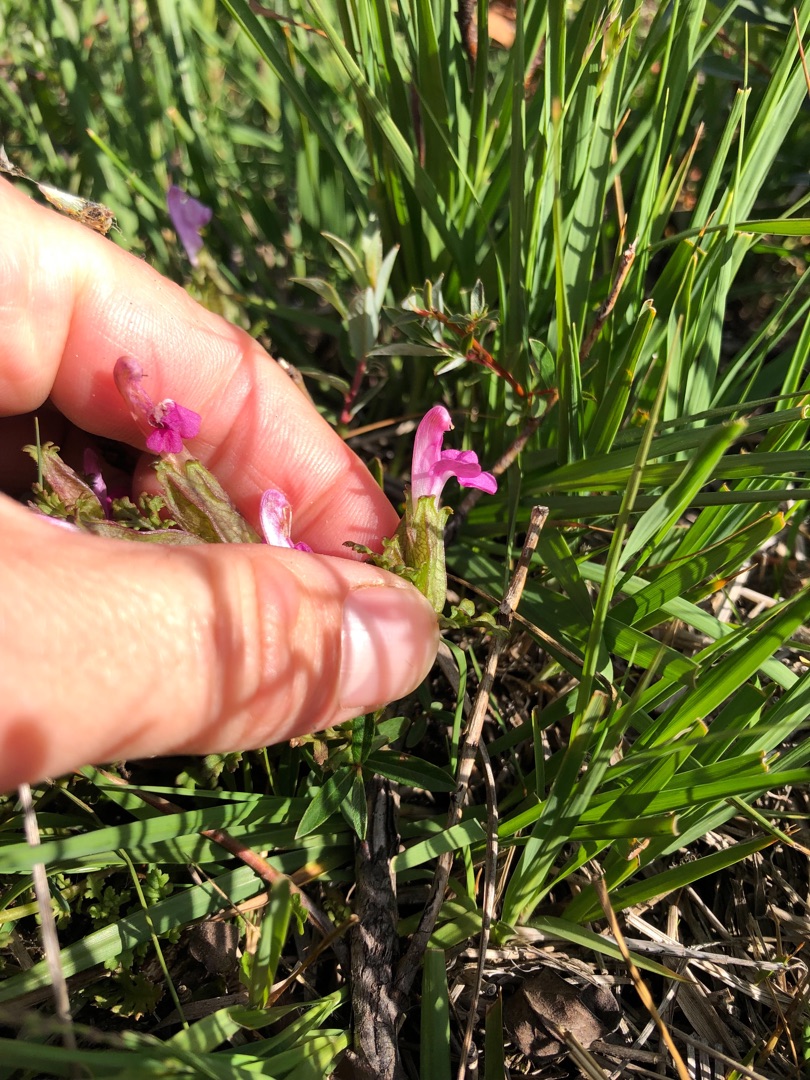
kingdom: Plantae
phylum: Tracheophyta
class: Magnoliopsida
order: Lamiales
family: Orobanchaceae
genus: Pedicularis
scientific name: Pedicularis palustris
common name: Eng-troldurt
